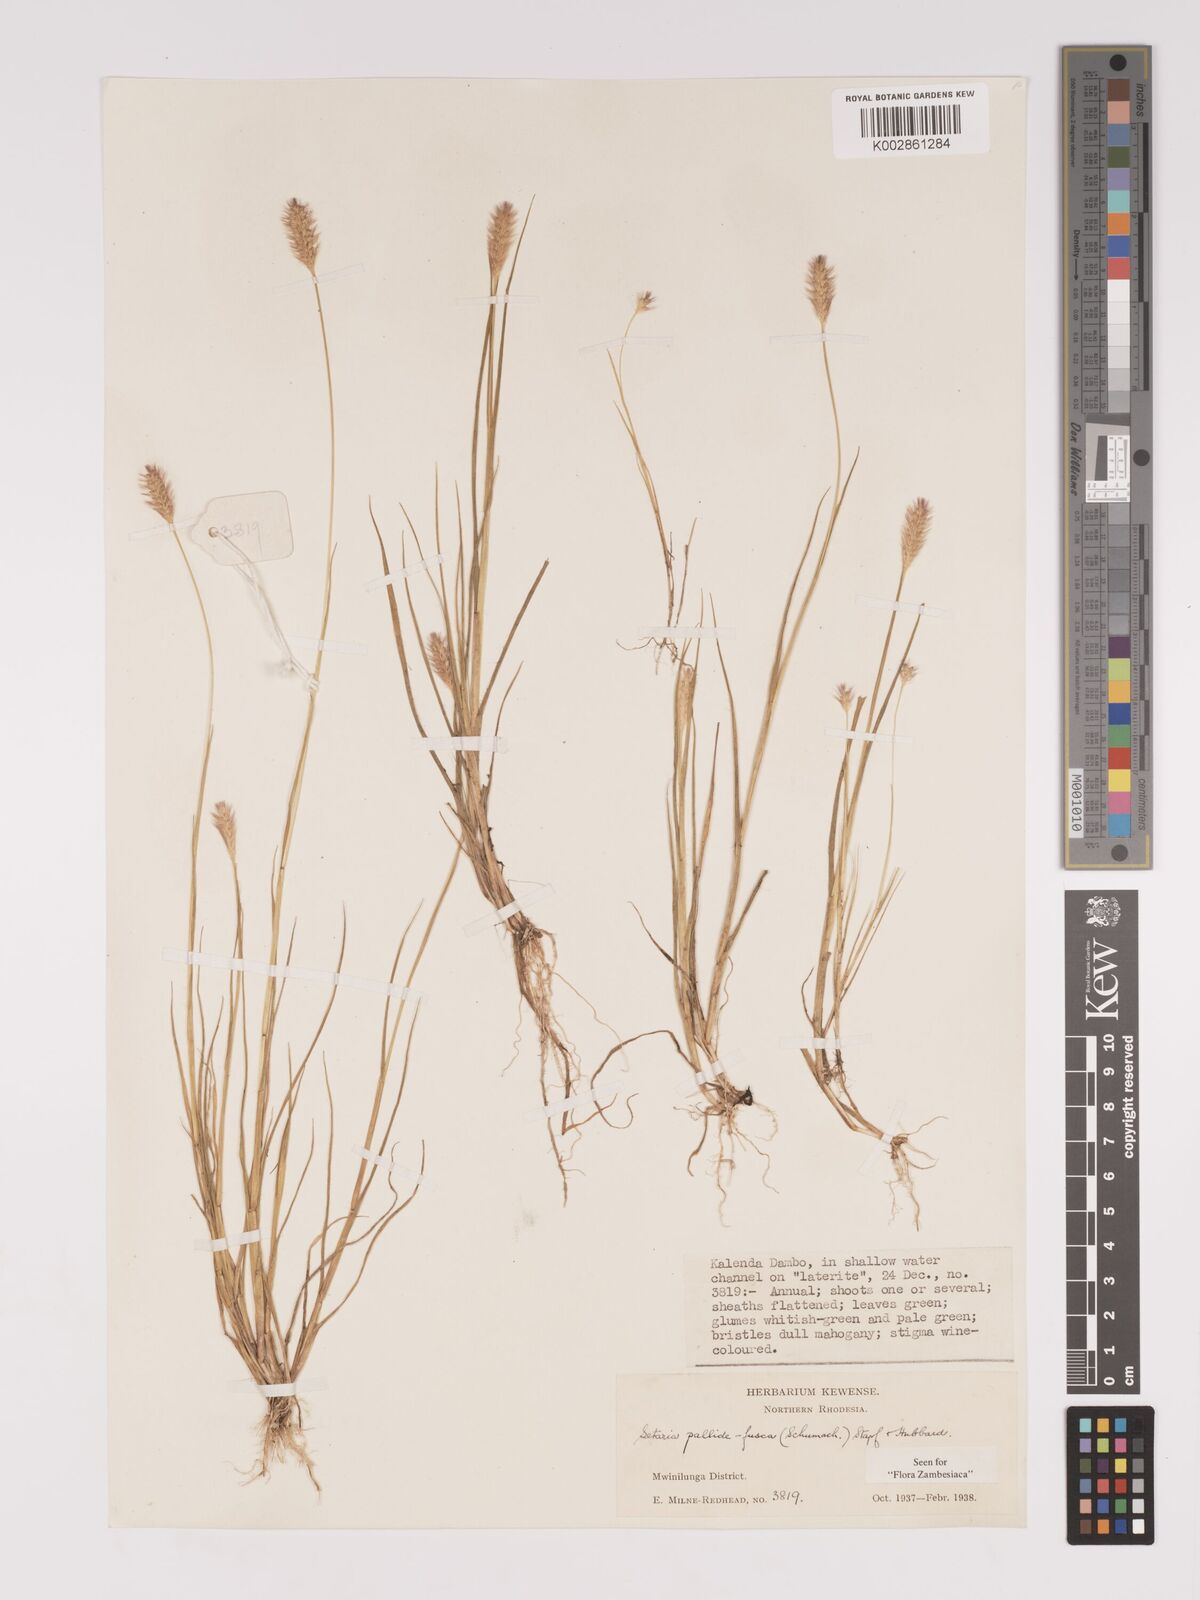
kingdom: Plantae
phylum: Tracheophyta
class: Liliopsida
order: Poales
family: Poaceae
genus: Setaria
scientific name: Setaria pumila
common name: Yellow bristle-grass
